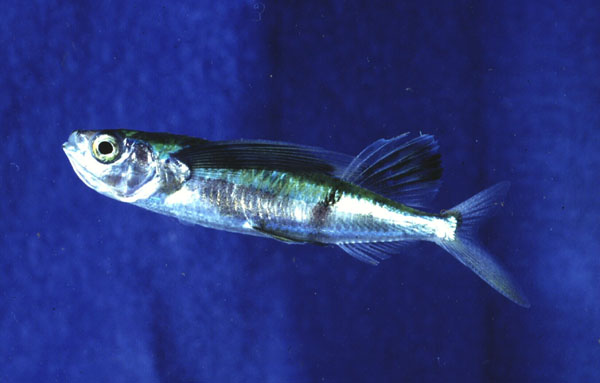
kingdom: Animalia
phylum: Chordata
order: Beloniformes
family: Exocoetidae
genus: Parexocoetus
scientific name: Parexocoetus mento
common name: African sailfin flyingfish
